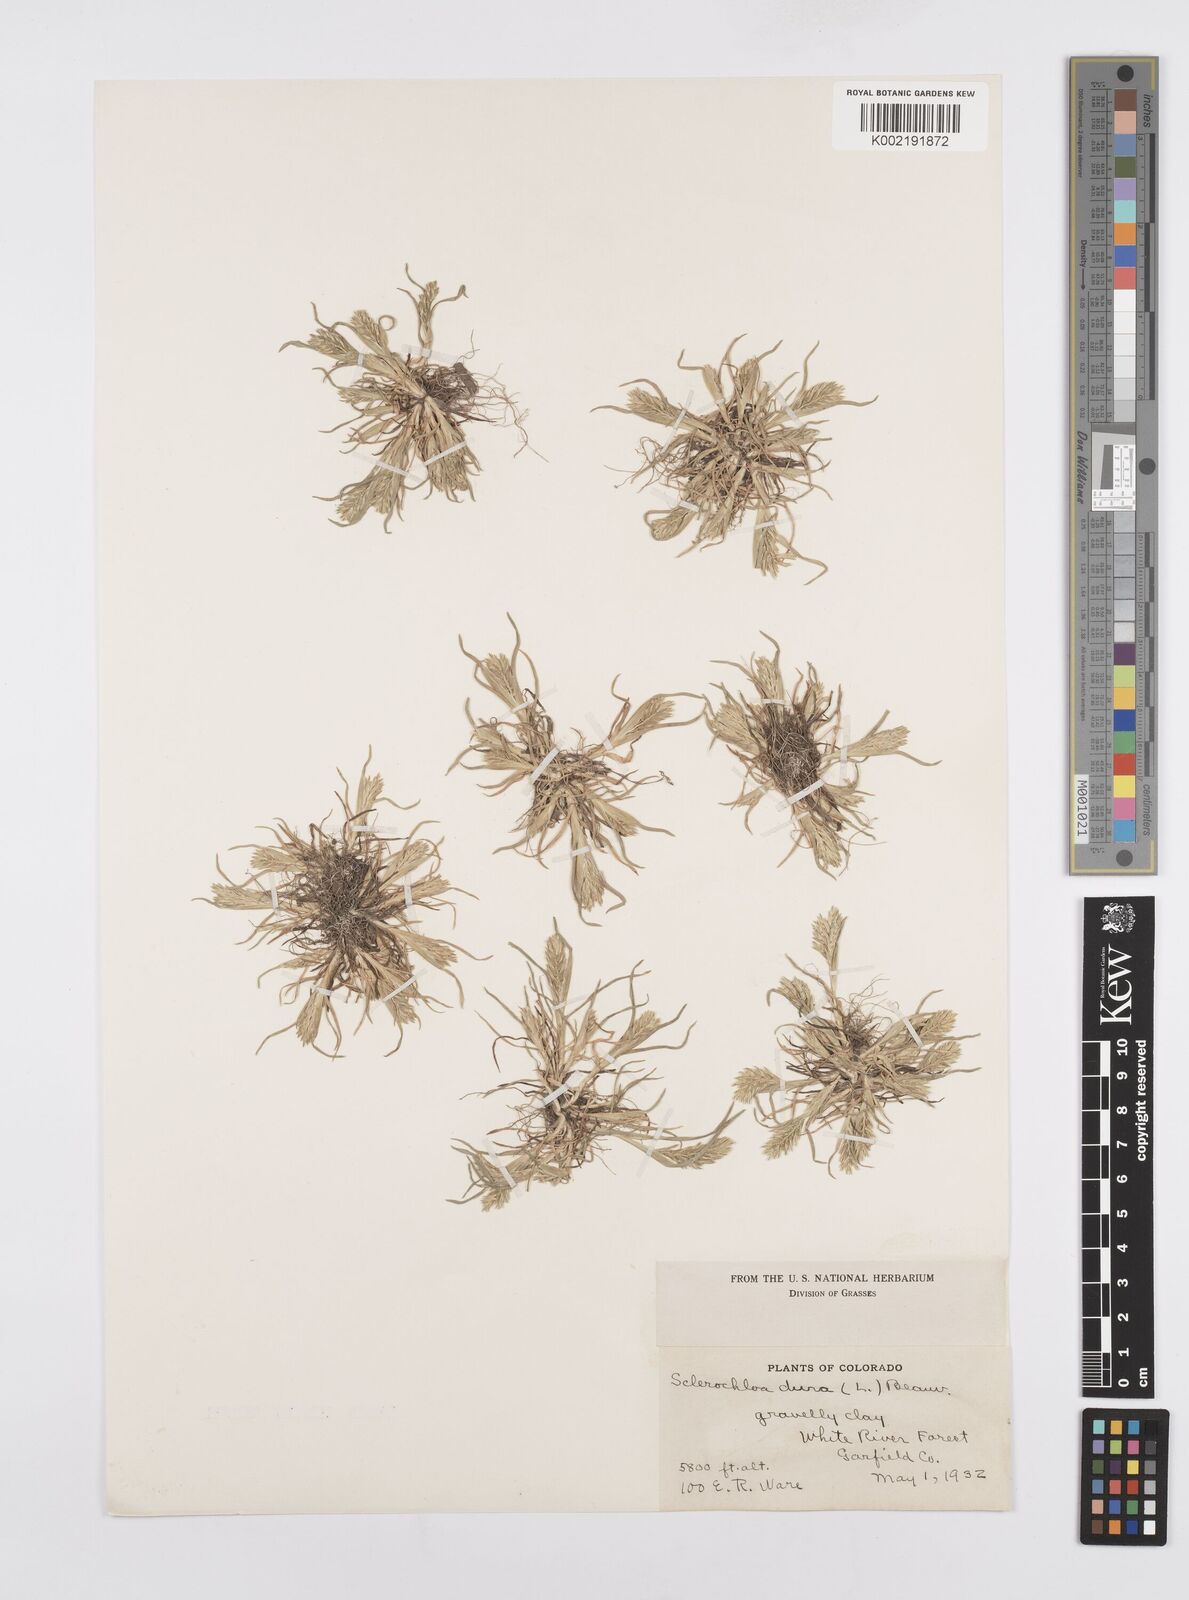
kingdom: Plantae
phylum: Tracheophyta
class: Liliopsida
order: Poales
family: Poaceae
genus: Sclerochloa
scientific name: Sclerochloa dura
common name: Common hardgrass
